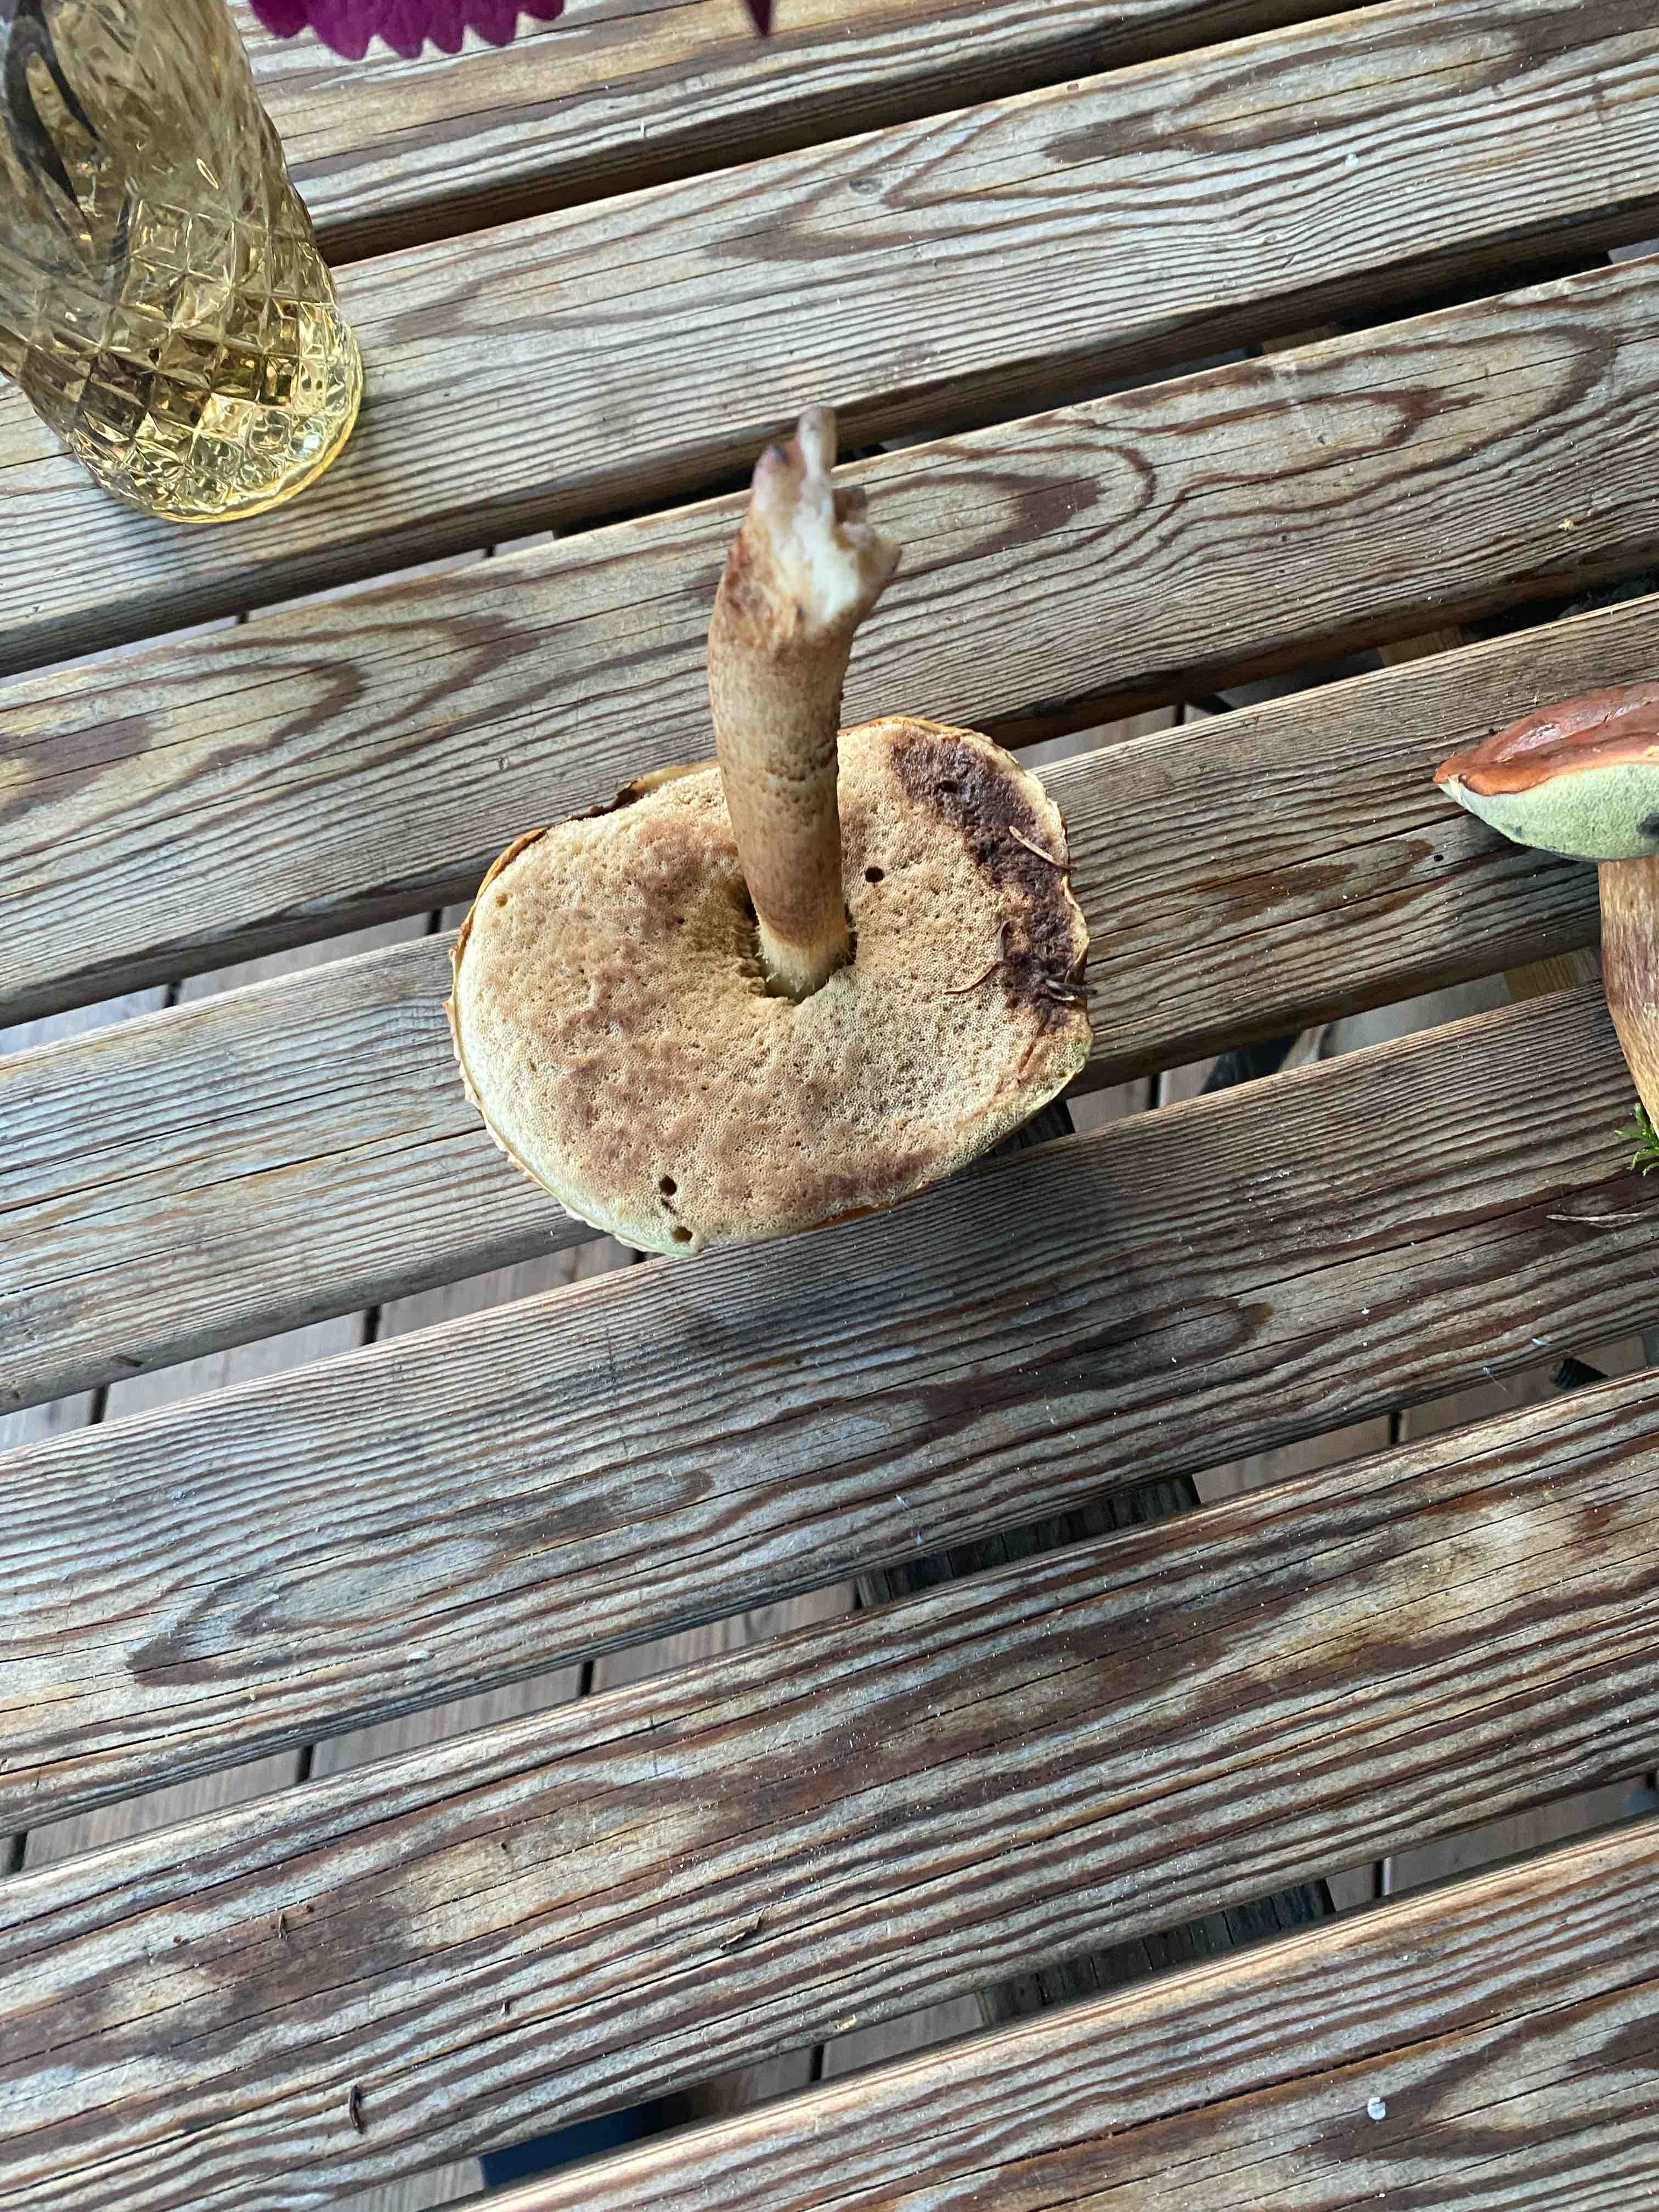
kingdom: Fungi
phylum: Basidiomycota
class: Agaricomycetes
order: Boletales
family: Boletaceae
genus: Leccinum
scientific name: Leccinum
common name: skælrørhat
